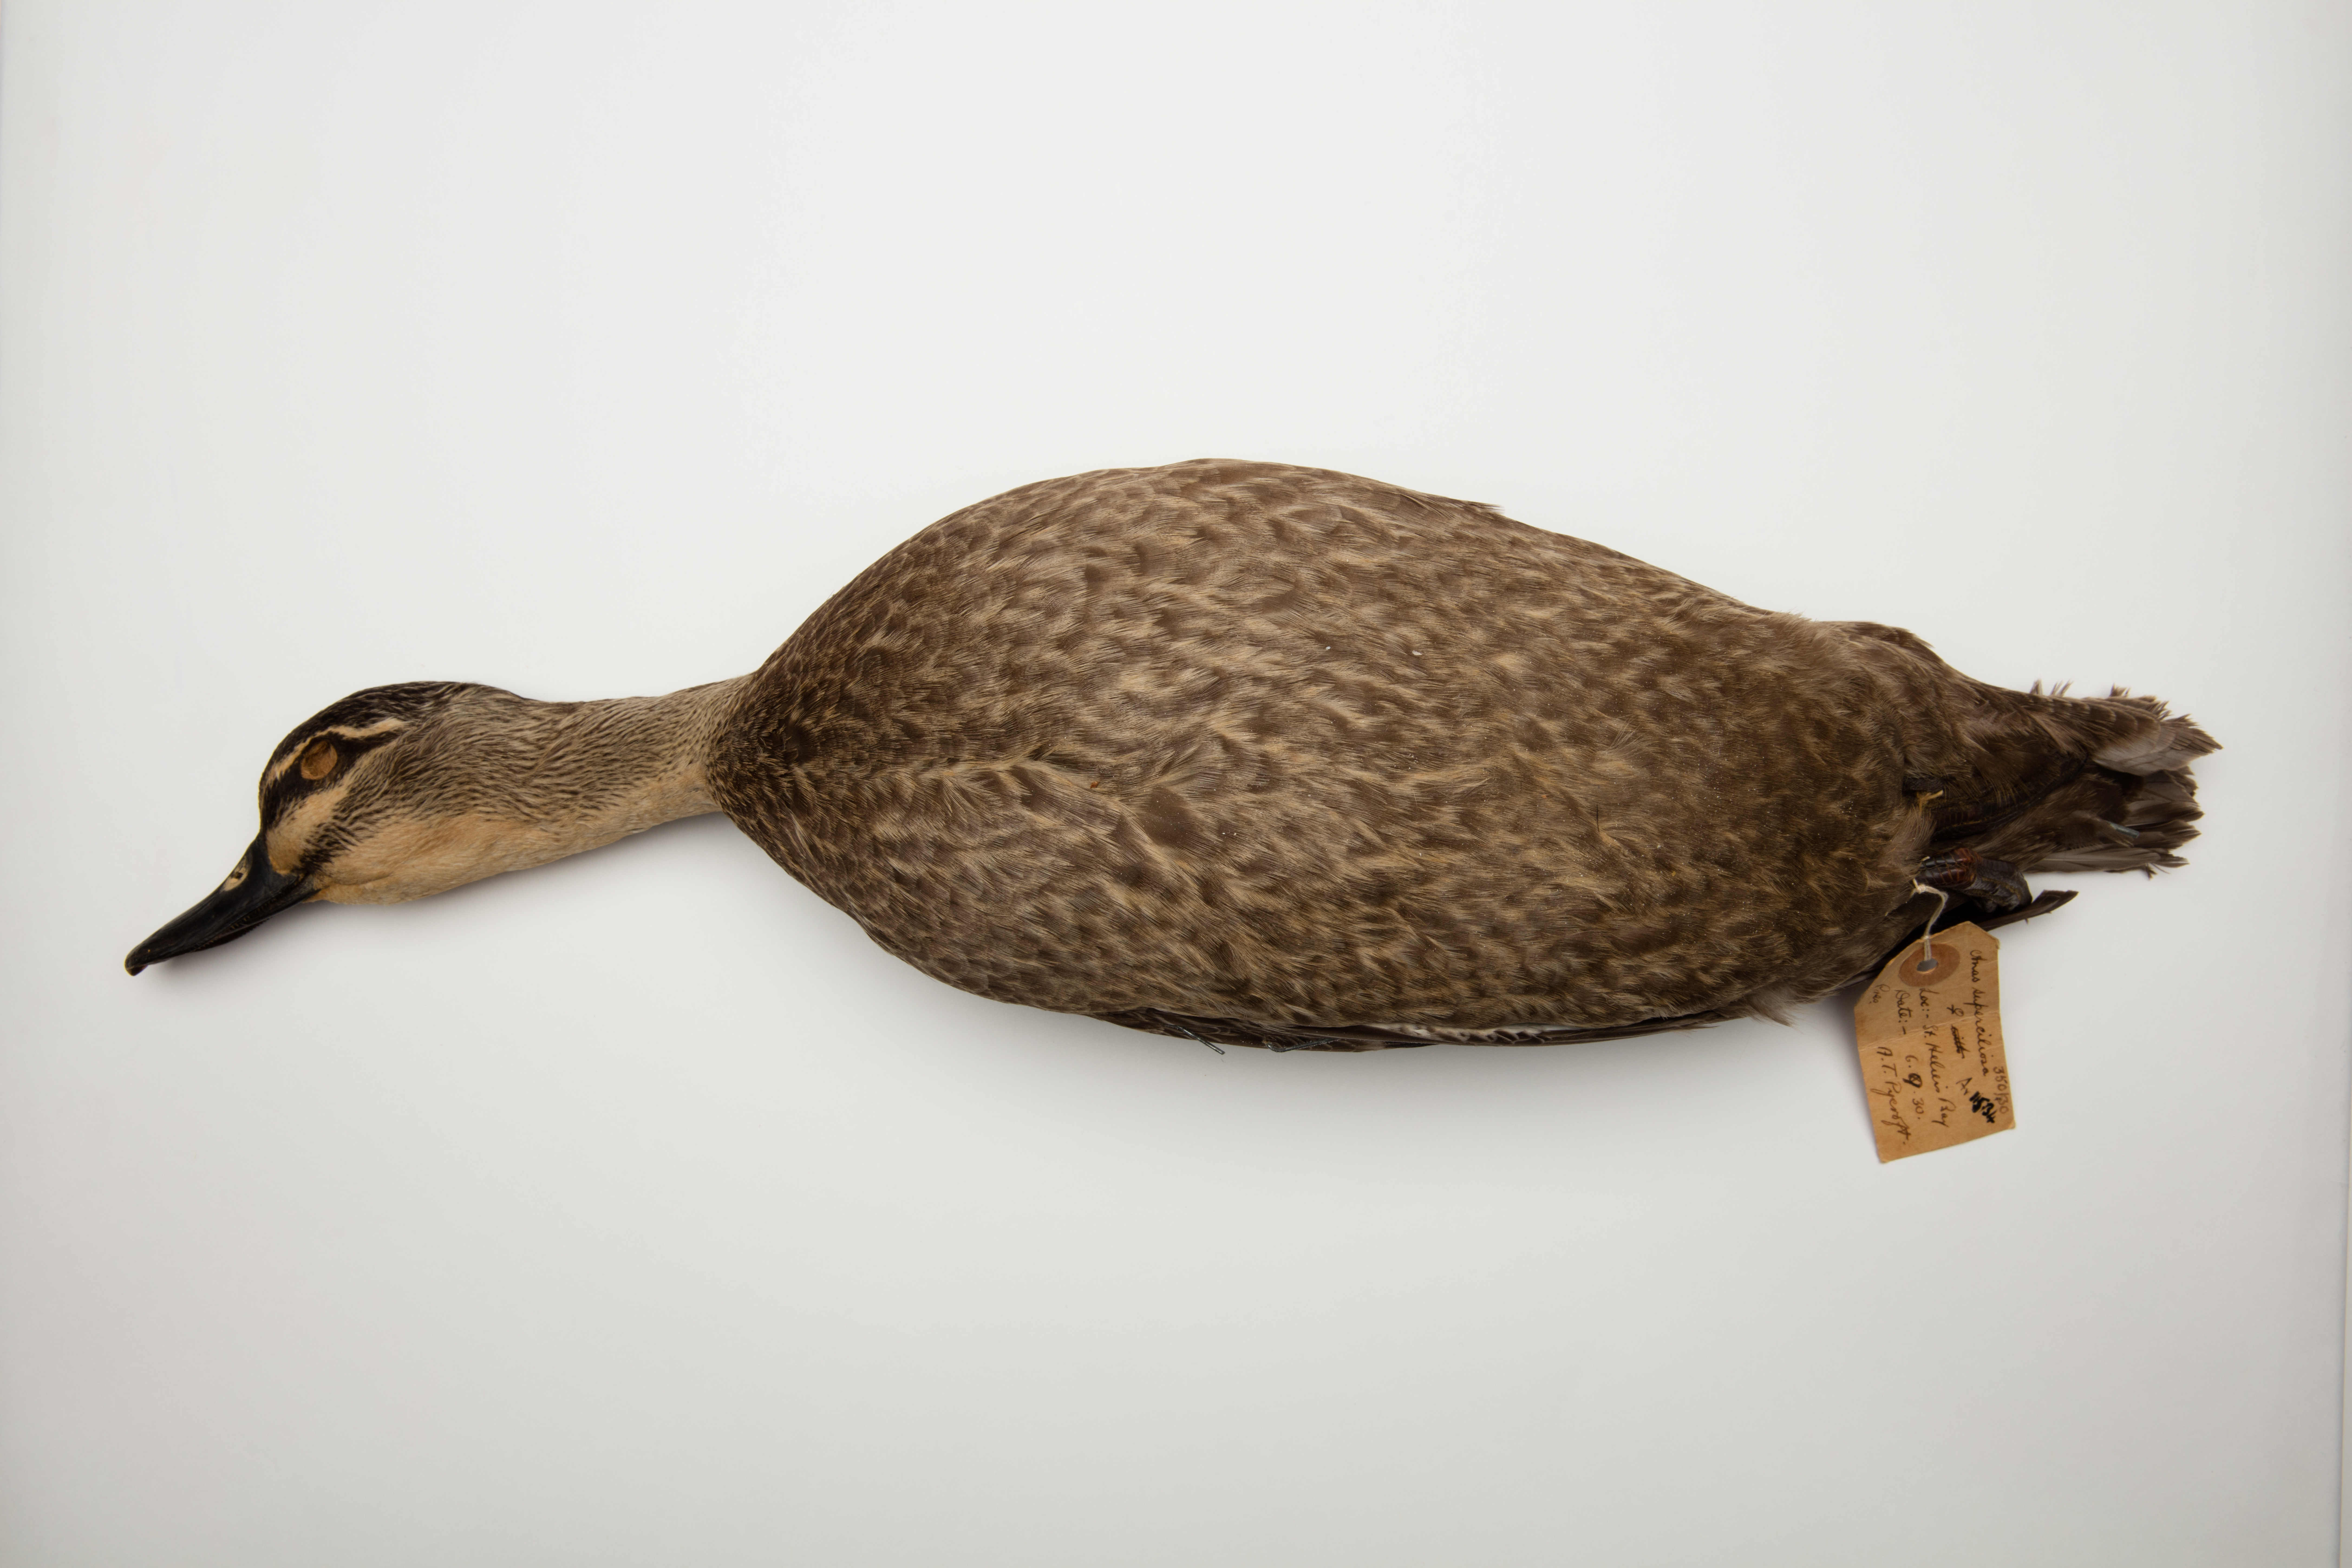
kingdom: Animalia
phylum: Chordata
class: Aves
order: Anseriformes
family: Anatidae
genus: Anas
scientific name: Anas superciliosa
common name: Pacific black duck
